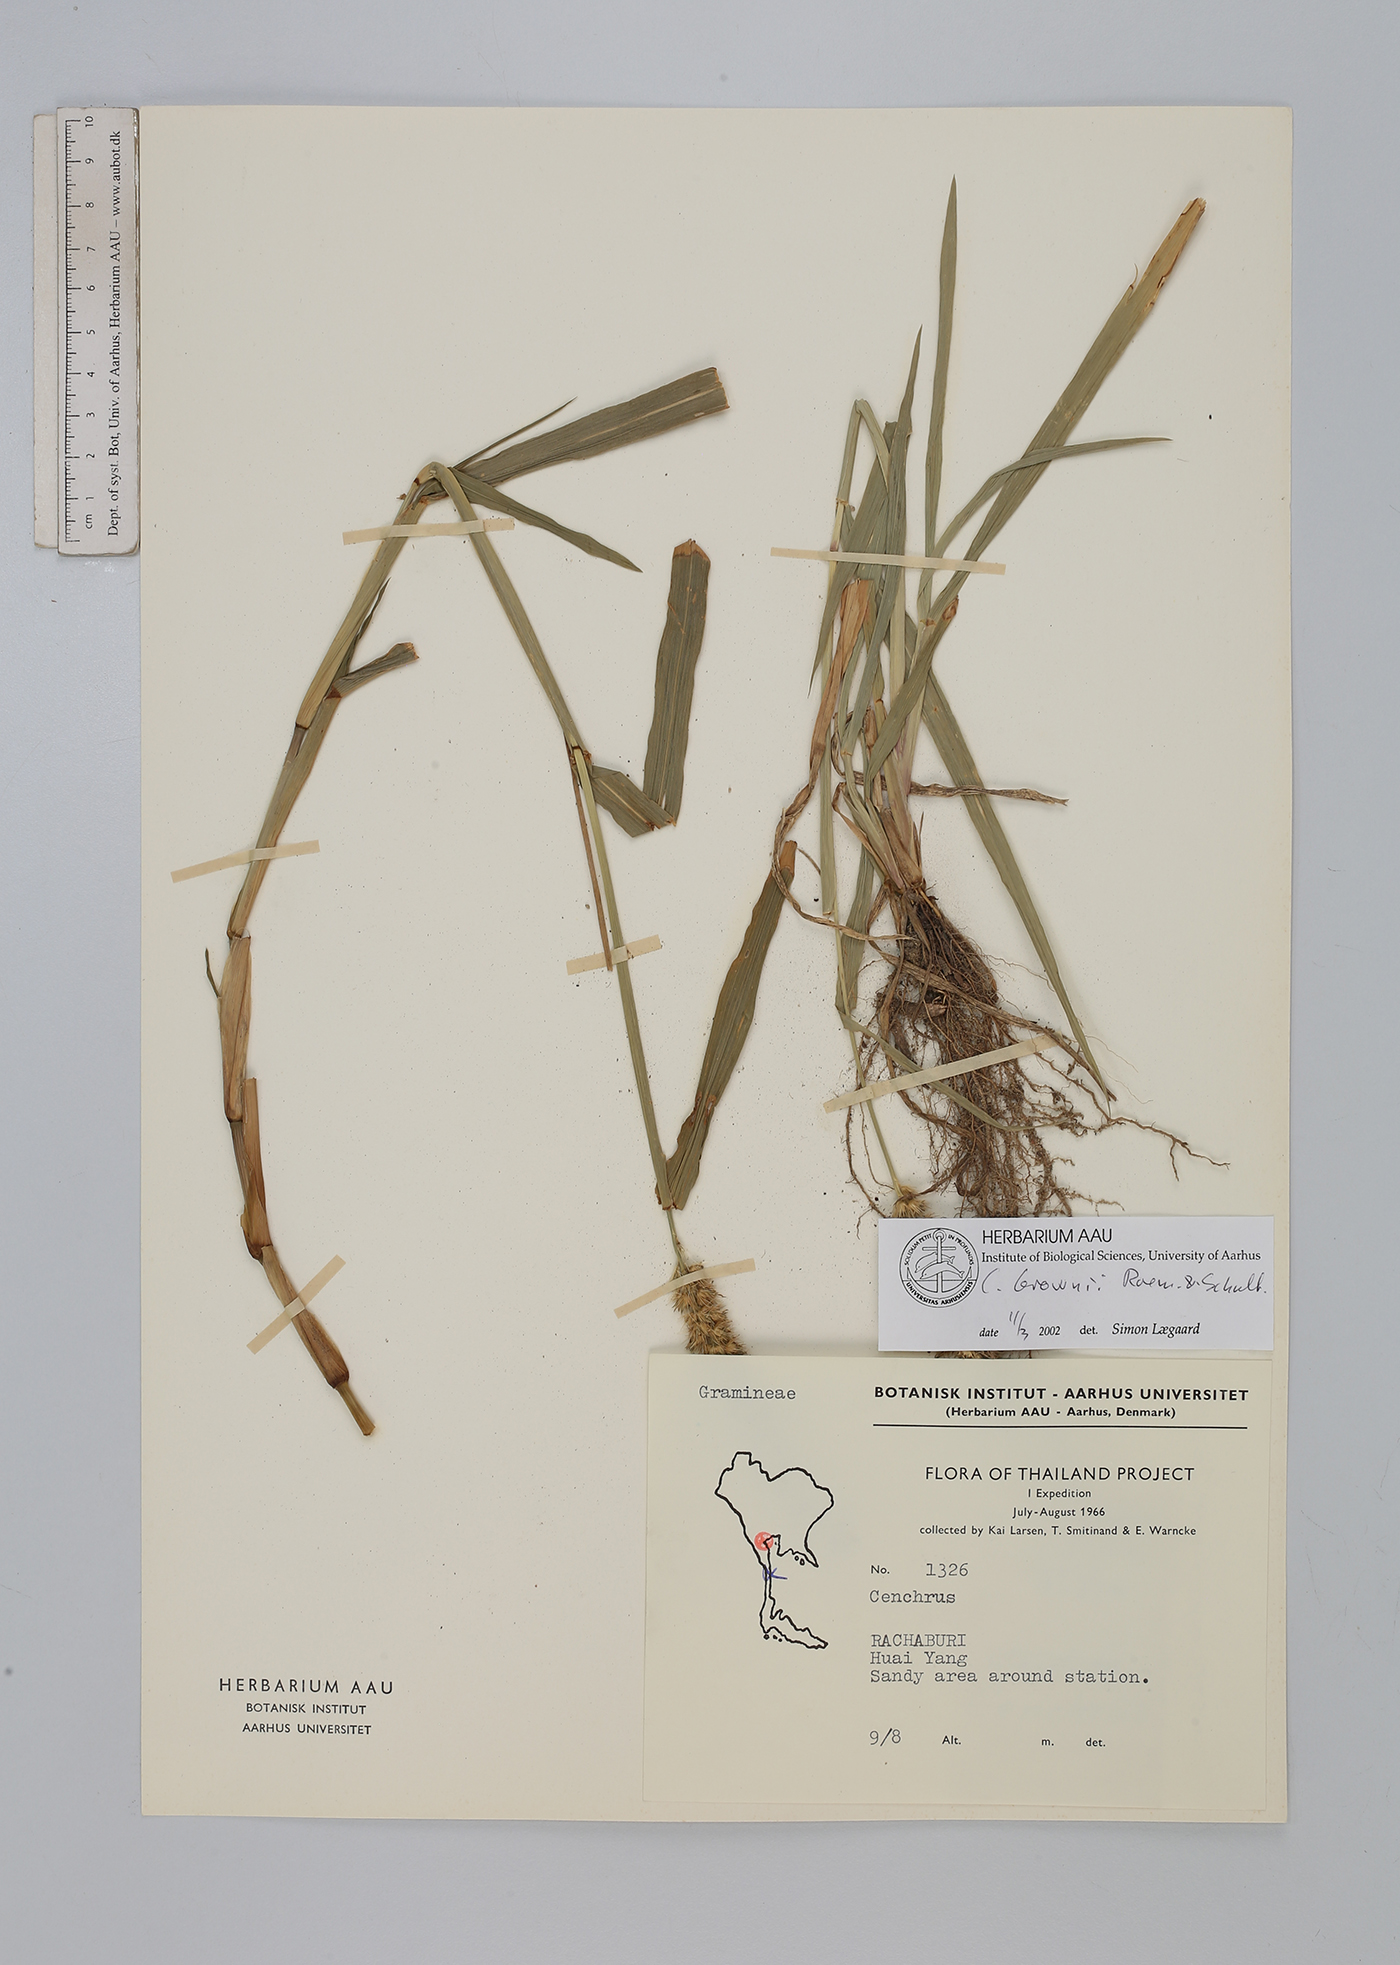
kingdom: Plantae
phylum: Tracheophyta
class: Liliopsida
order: Poales
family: Poaceae
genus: Cenchrus
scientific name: Cenchrus brownii
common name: Slim-bristle sandbur
